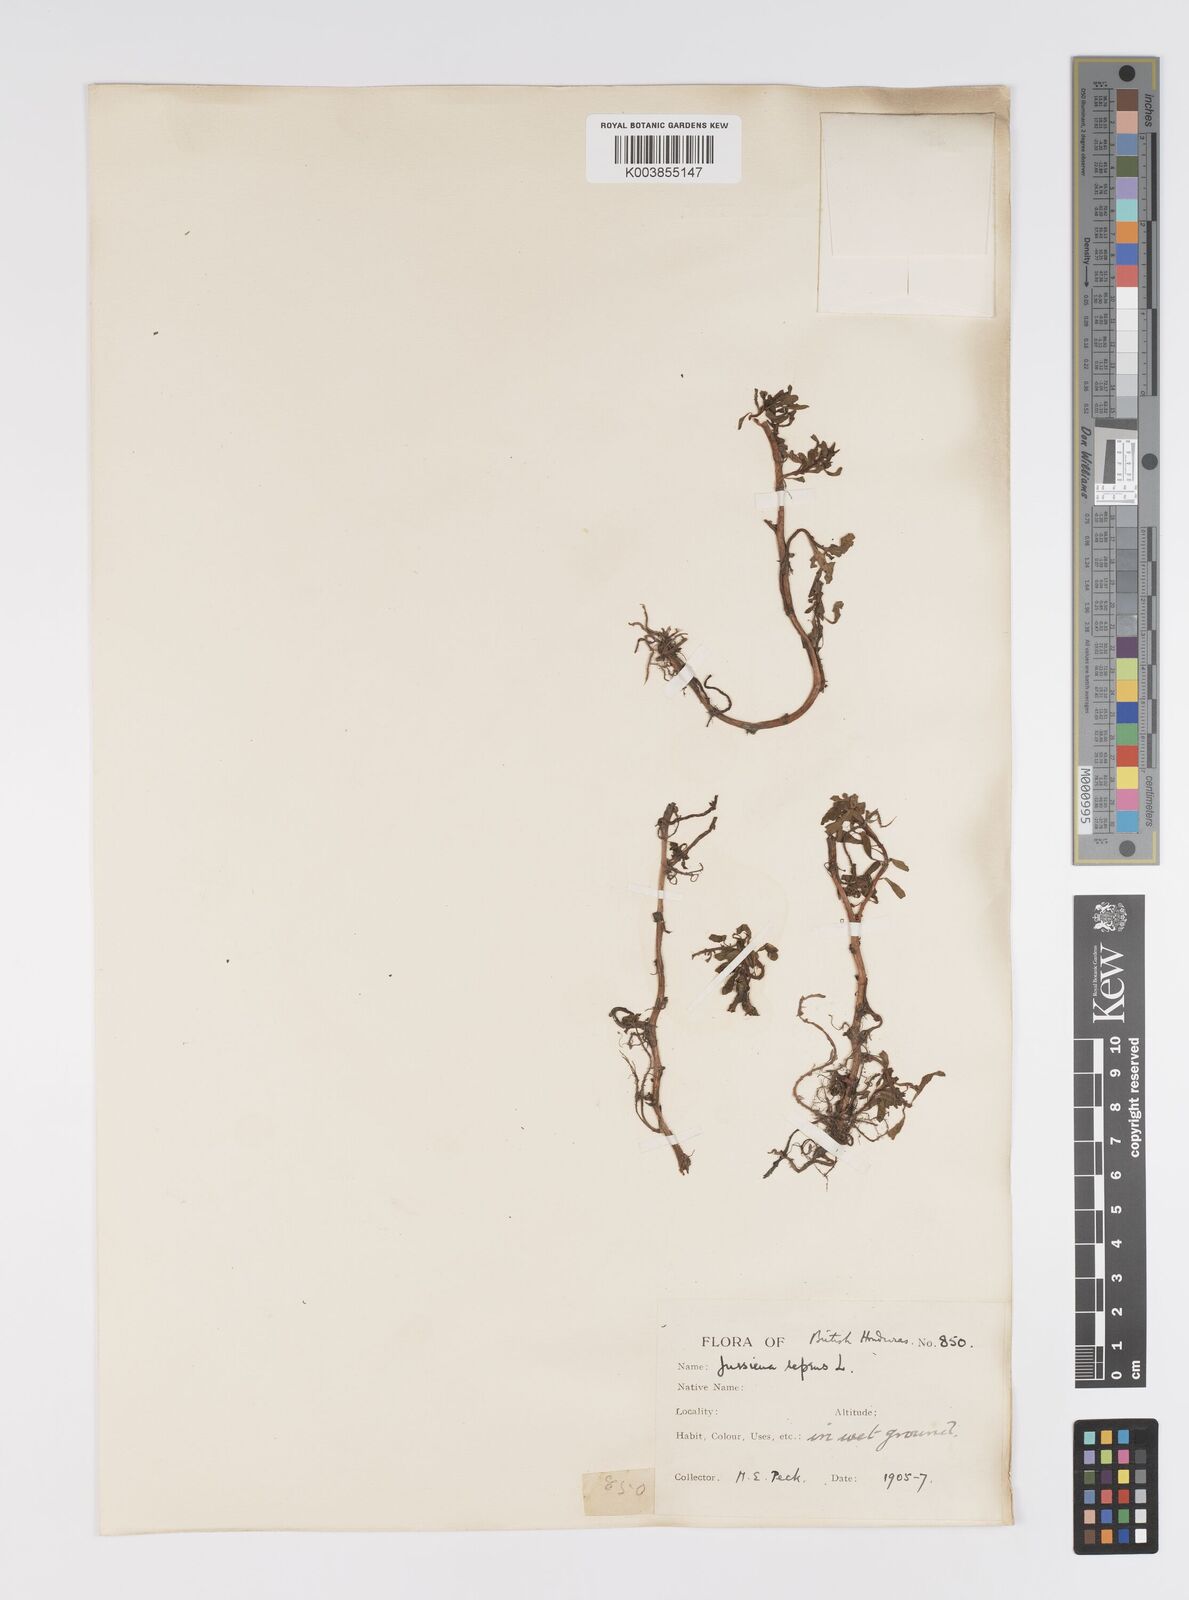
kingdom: Plantae
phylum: Tracheophyta
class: Magnoliopsida
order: Myrtales
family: Onagraceae
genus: Ludwigia
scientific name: Ludwigia adscendens
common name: Creeping water primrose
